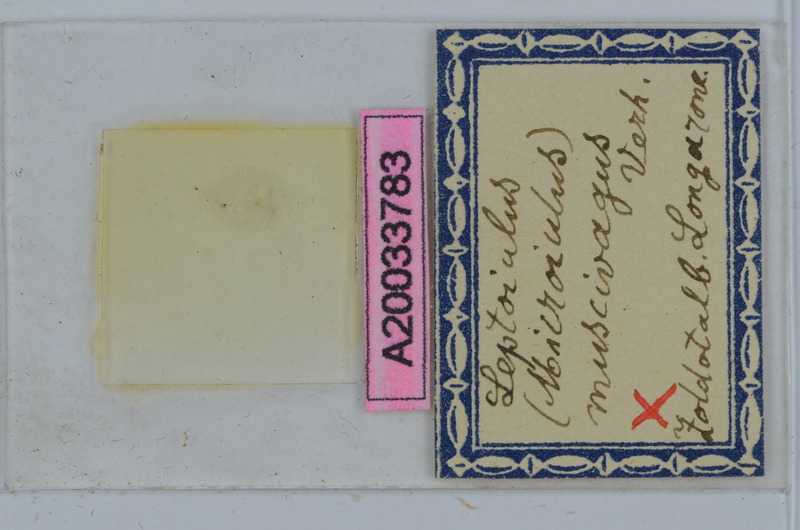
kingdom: Animalia
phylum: Arthropoda
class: Diplopoda
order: Julida
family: Julidae
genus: Xestoiulus
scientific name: Xestoiulus imbecillus
